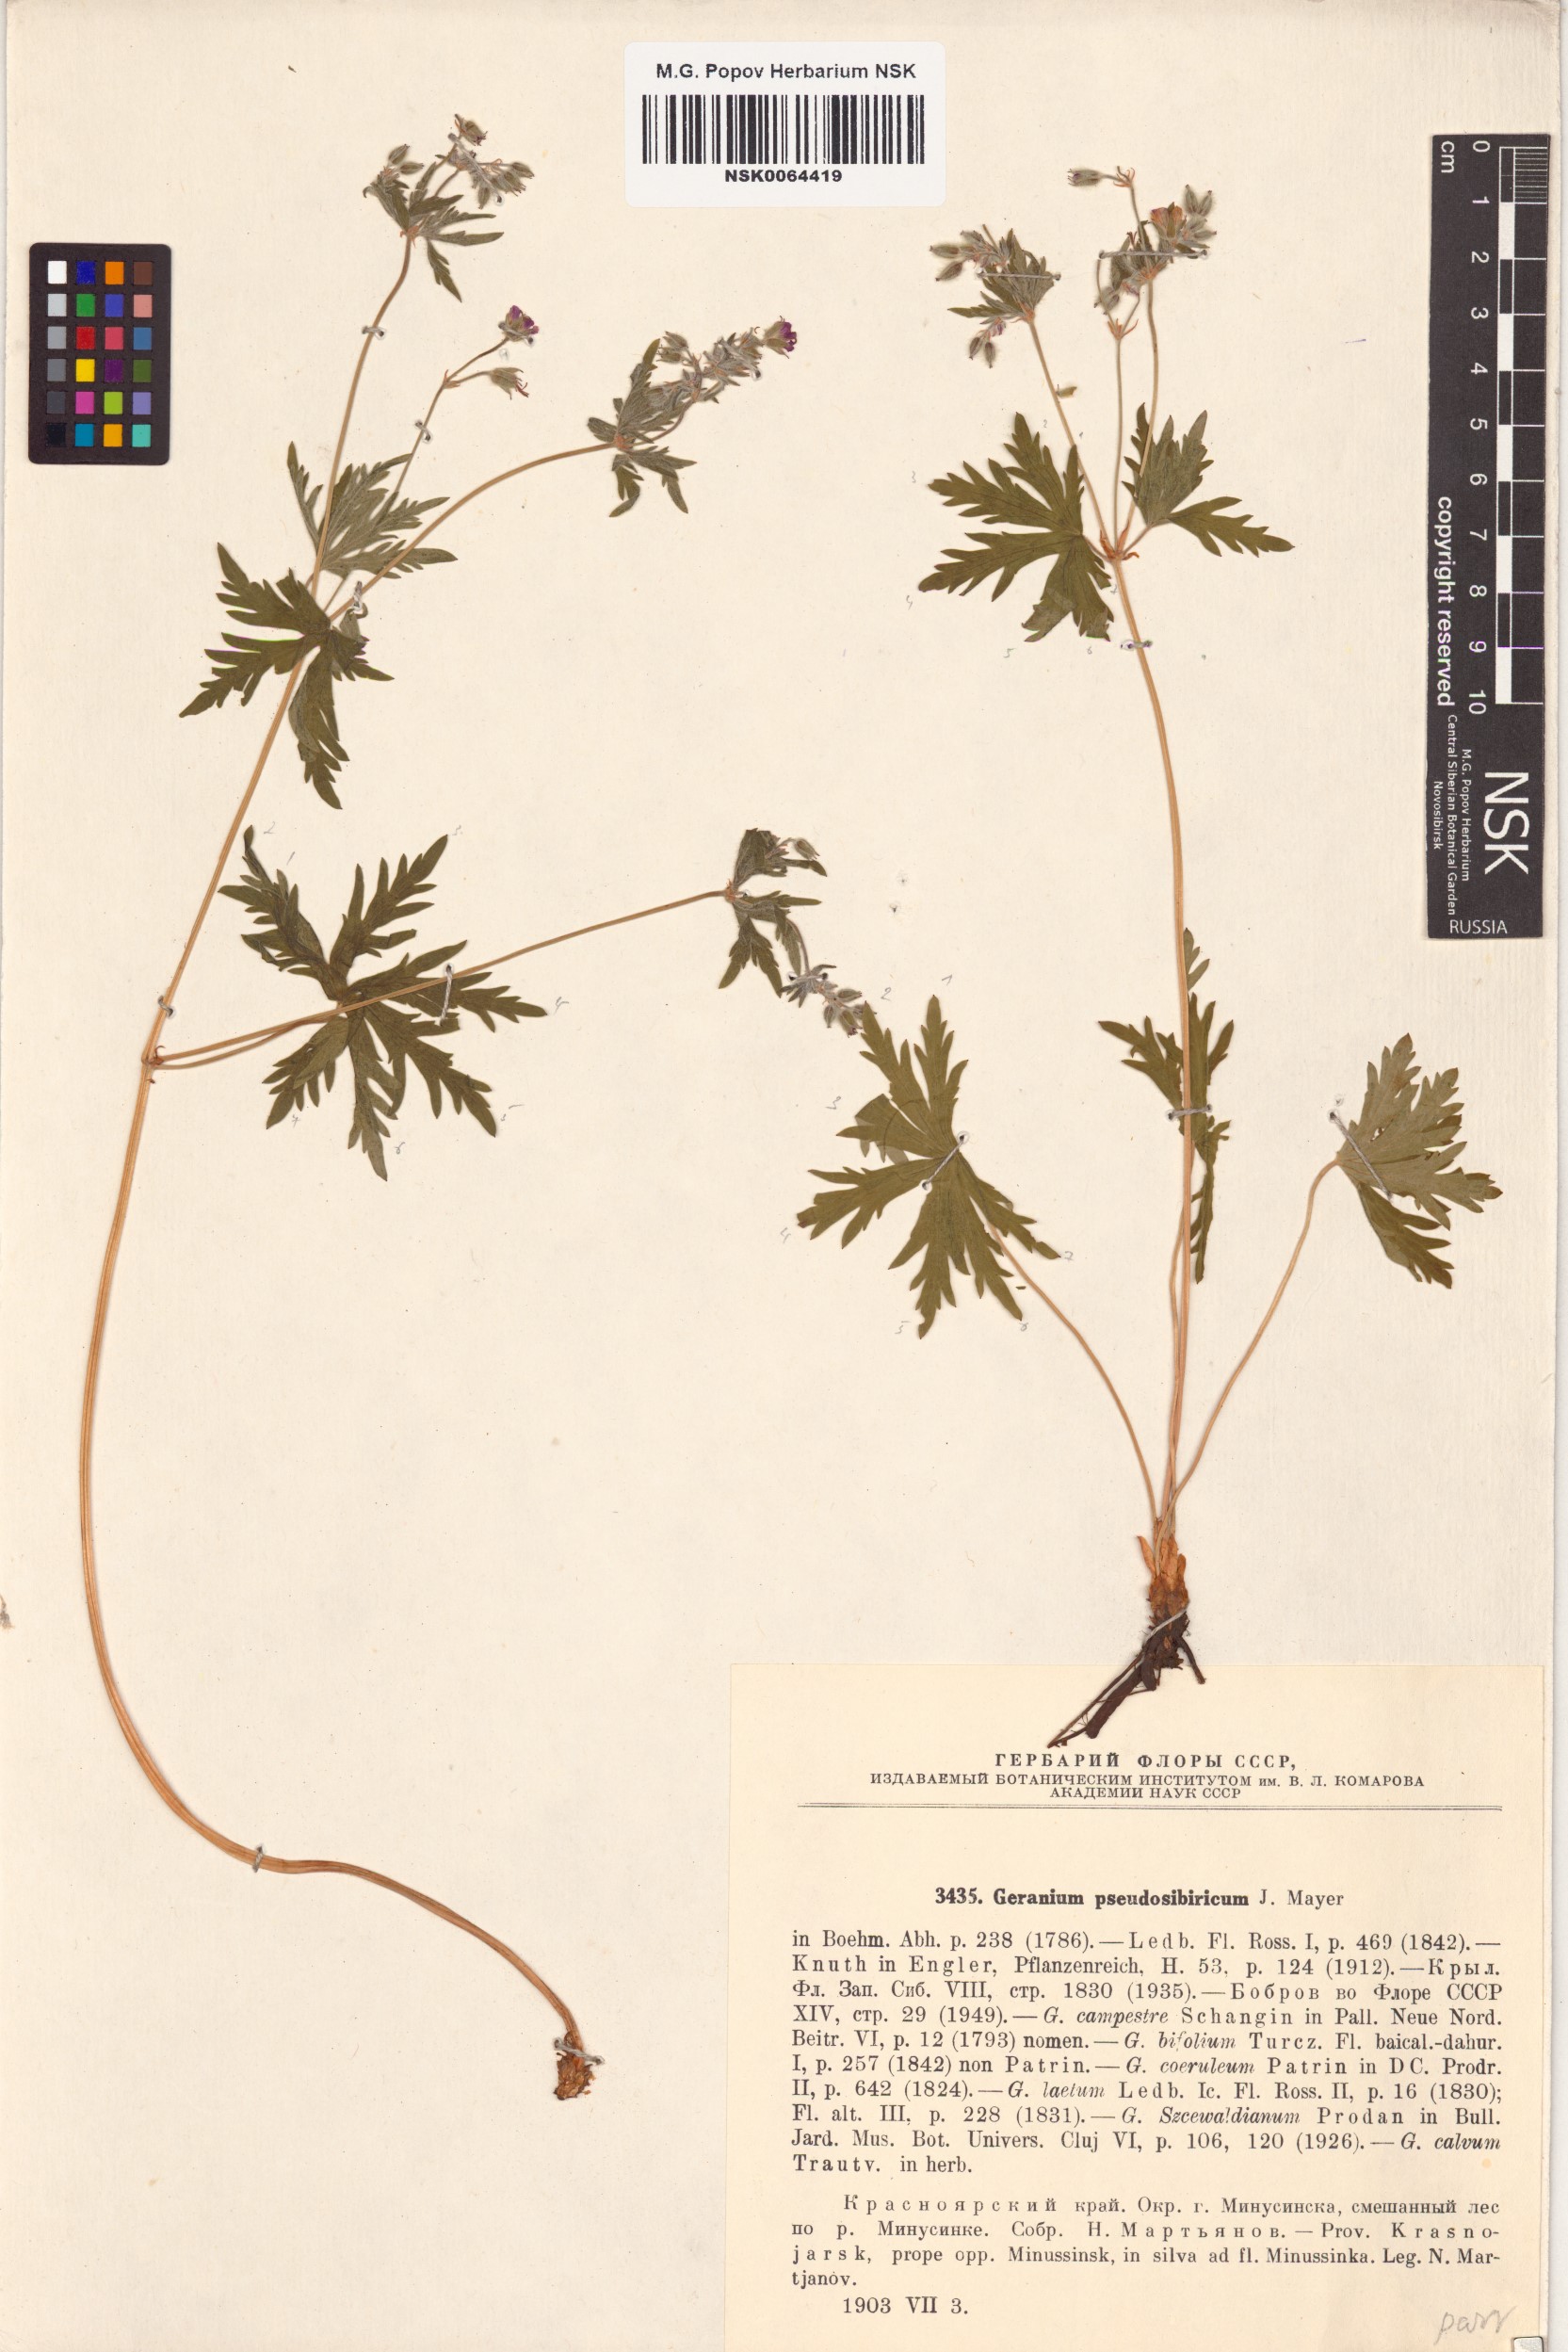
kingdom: Plantae
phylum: Tracheophyta
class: Magnoliopsida
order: Geraniales
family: Geraniaceae
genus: Geranium
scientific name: Geranium pseudosibiricum
